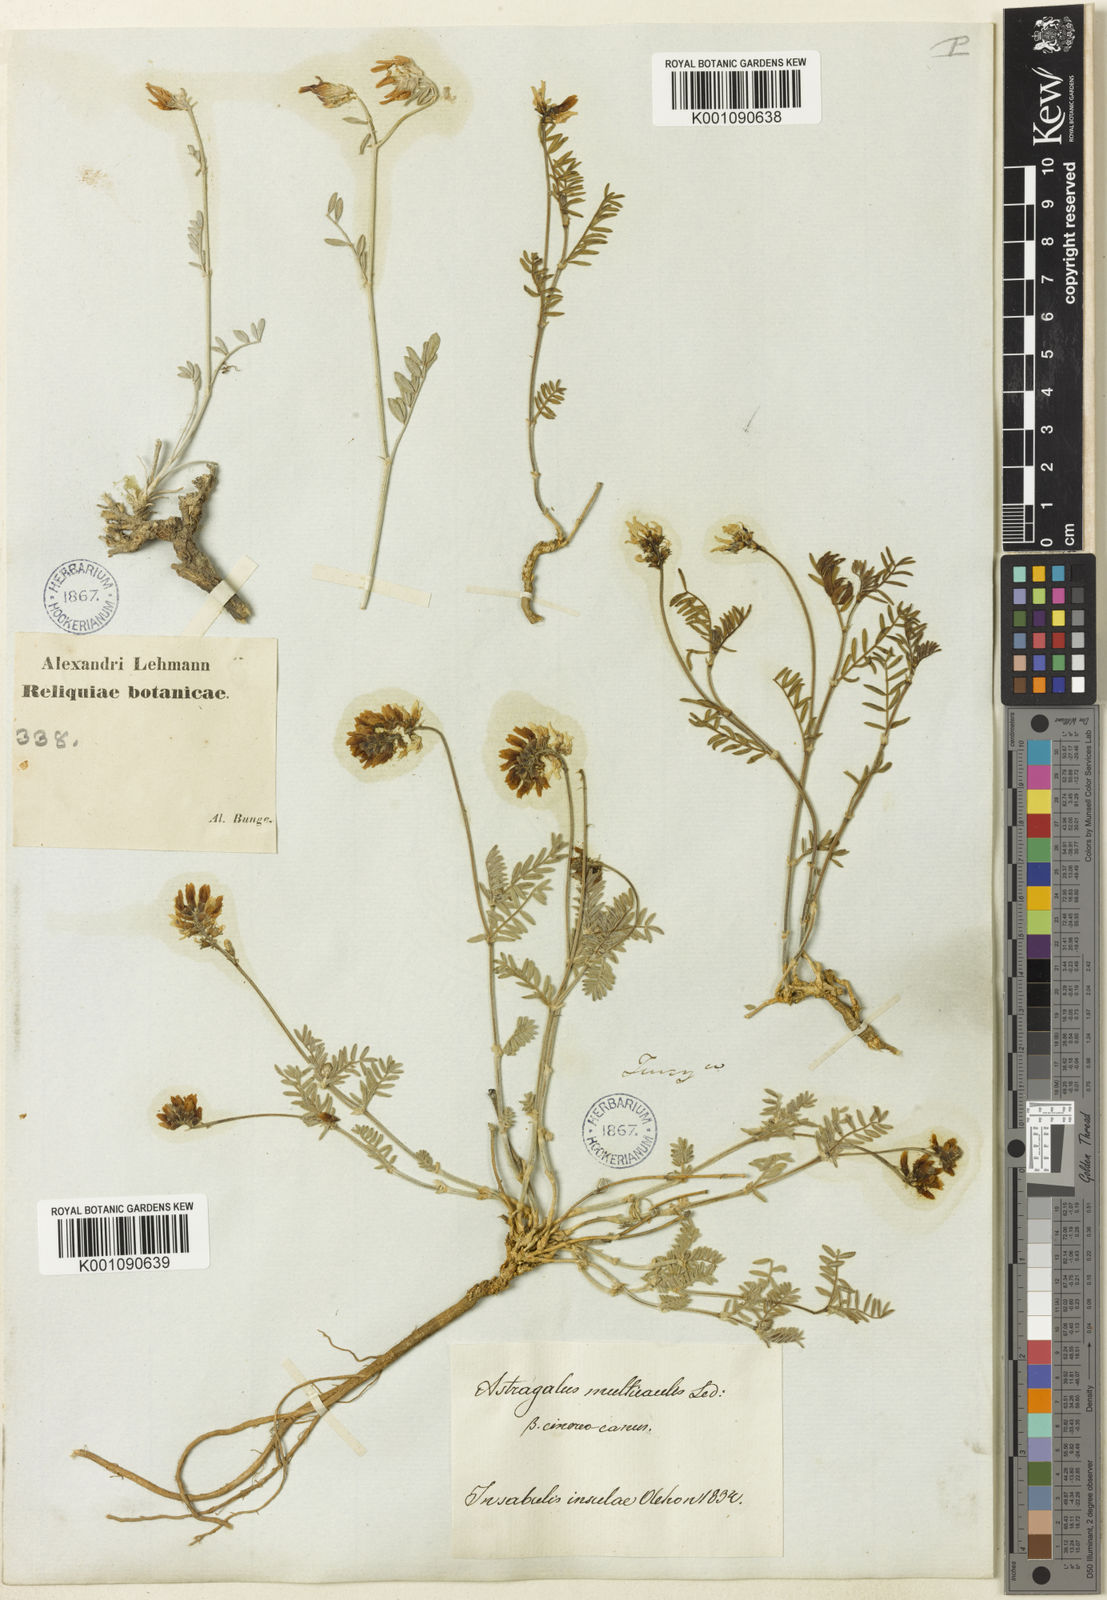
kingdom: Plantae
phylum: Tracheophyta
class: Magnoliopsida
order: Fabales
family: Fabaceae
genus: Astragalus
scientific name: Astragalus
